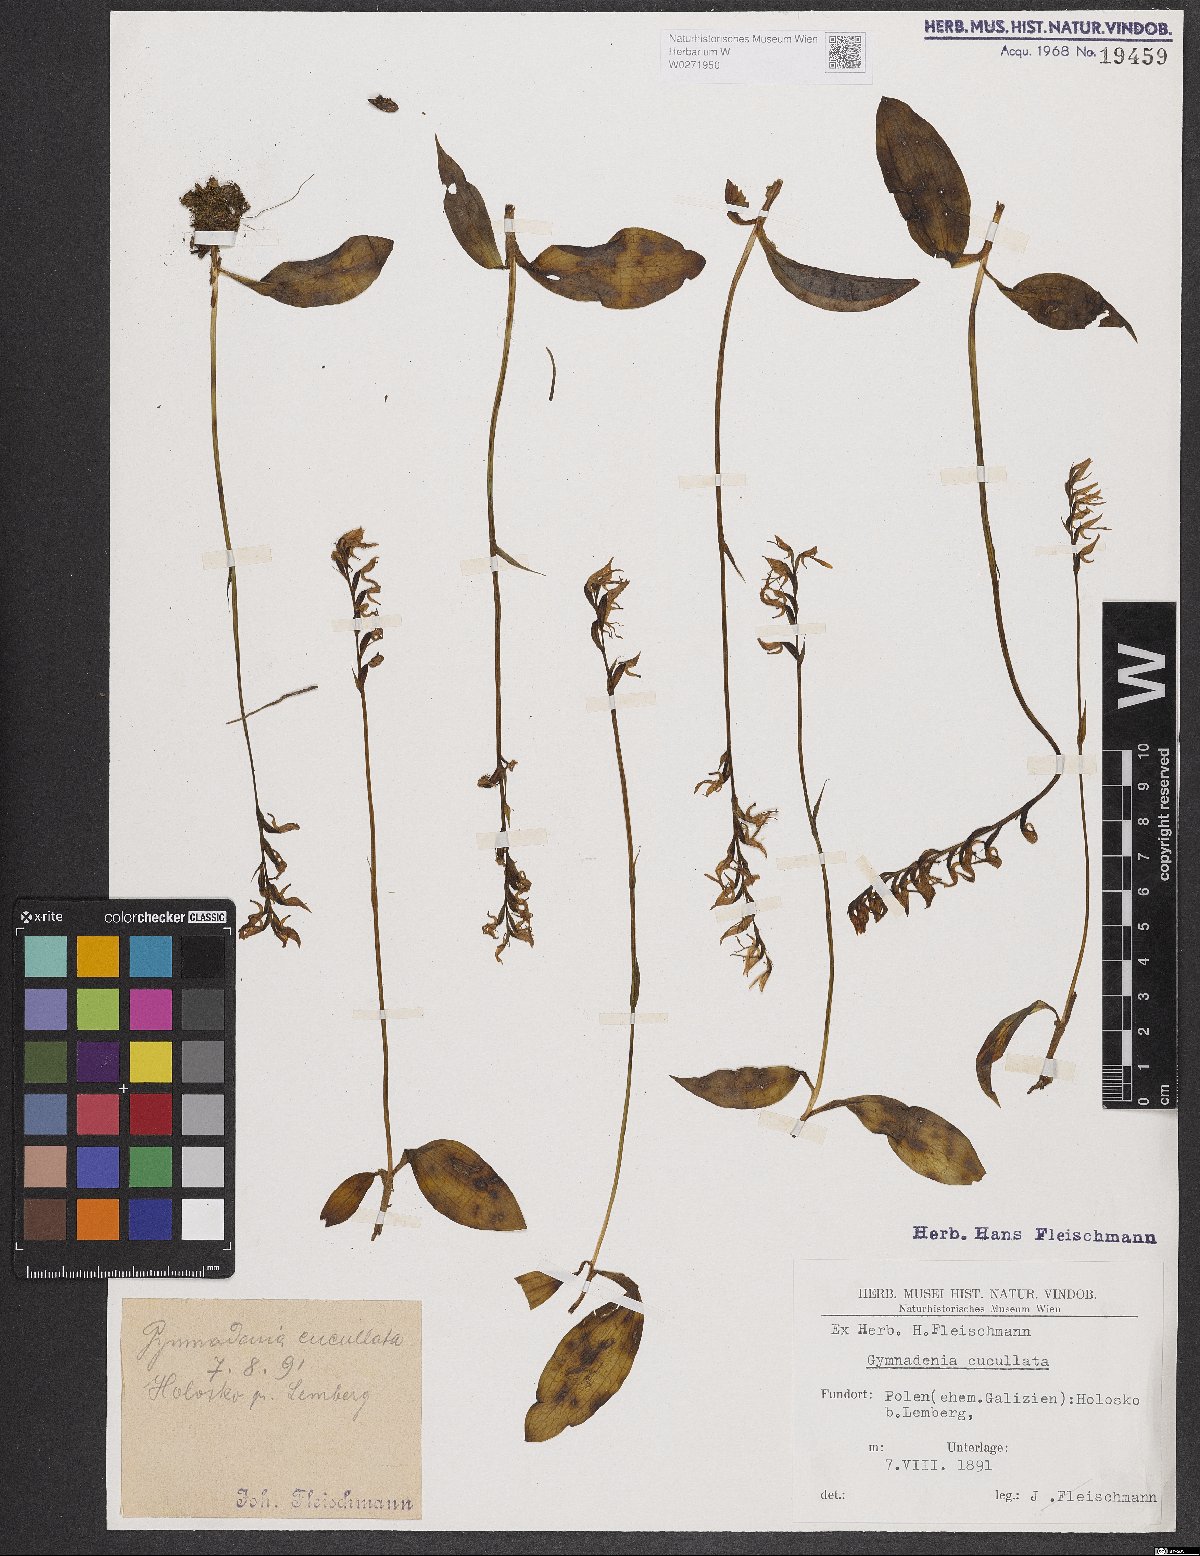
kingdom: Plantae
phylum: Tracheophyta
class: Liliopsida
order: Asparagales
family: Orchidaceae
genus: Hemipilia
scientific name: Hemipilia cucullata
